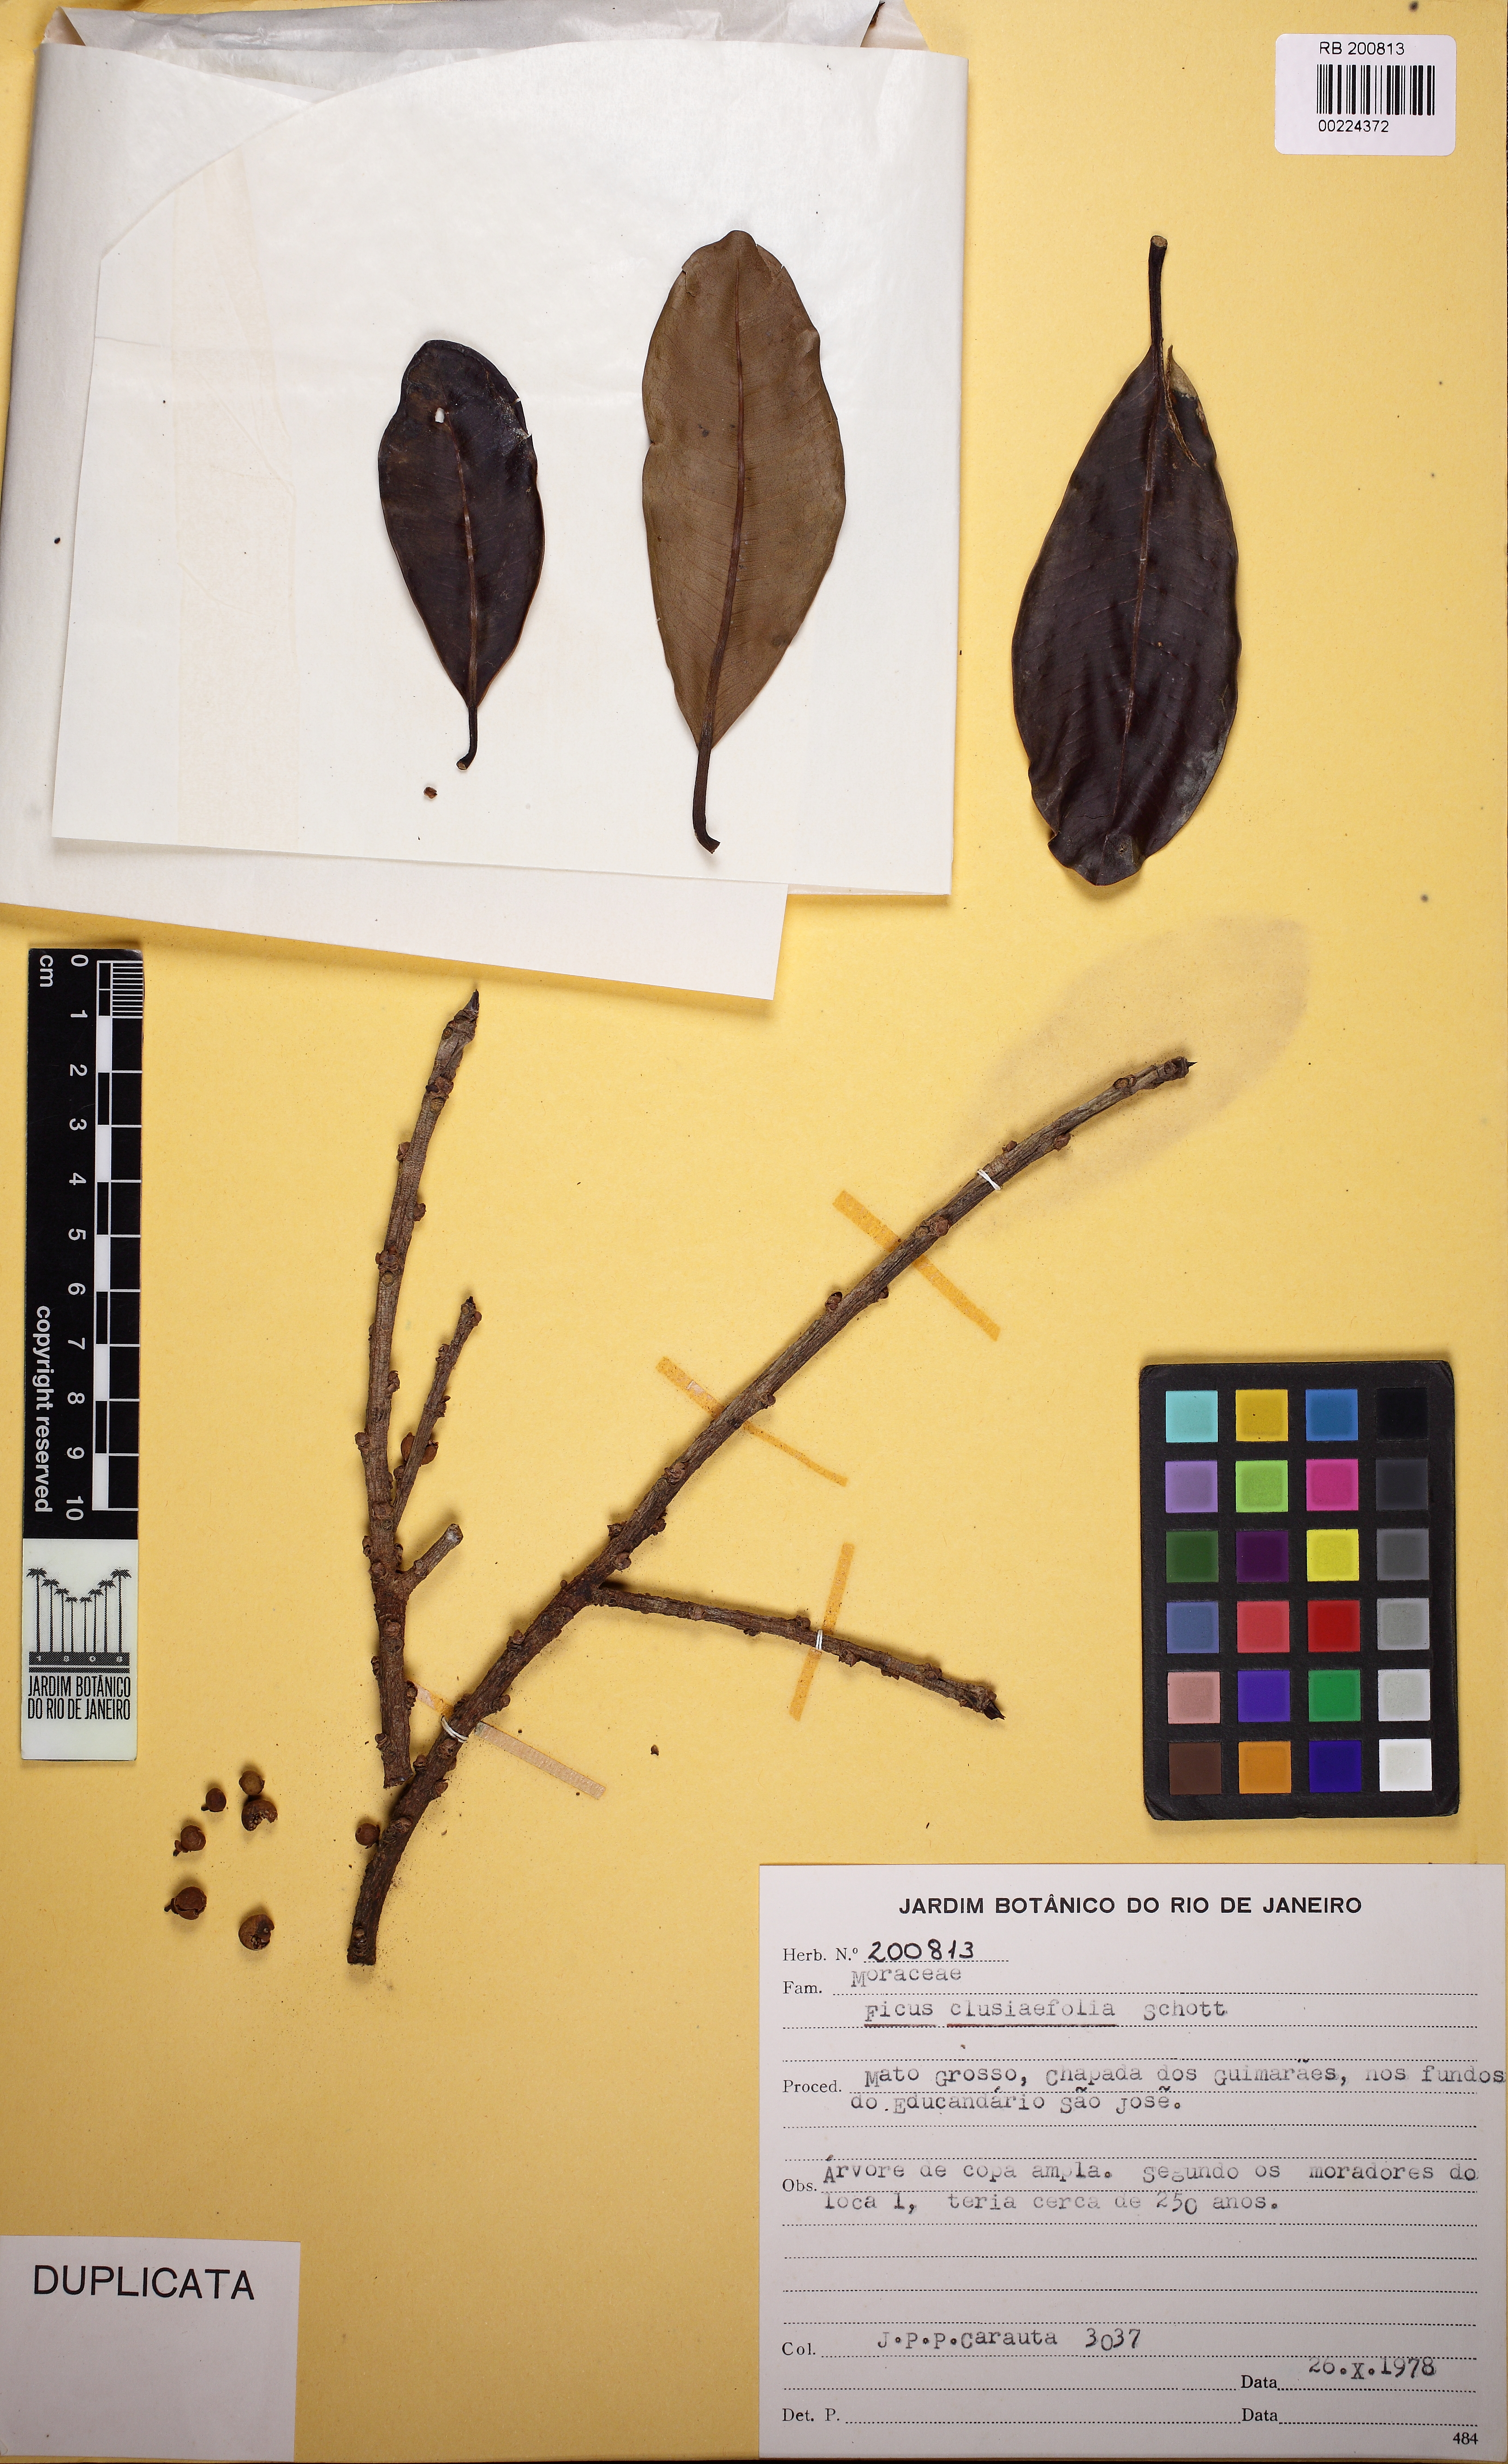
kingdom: Plantae
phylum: Tracheophyta
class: Magnoliopsida
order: Rosales
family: Moraceae
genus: Ficus
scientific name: Ficus mathewsii
